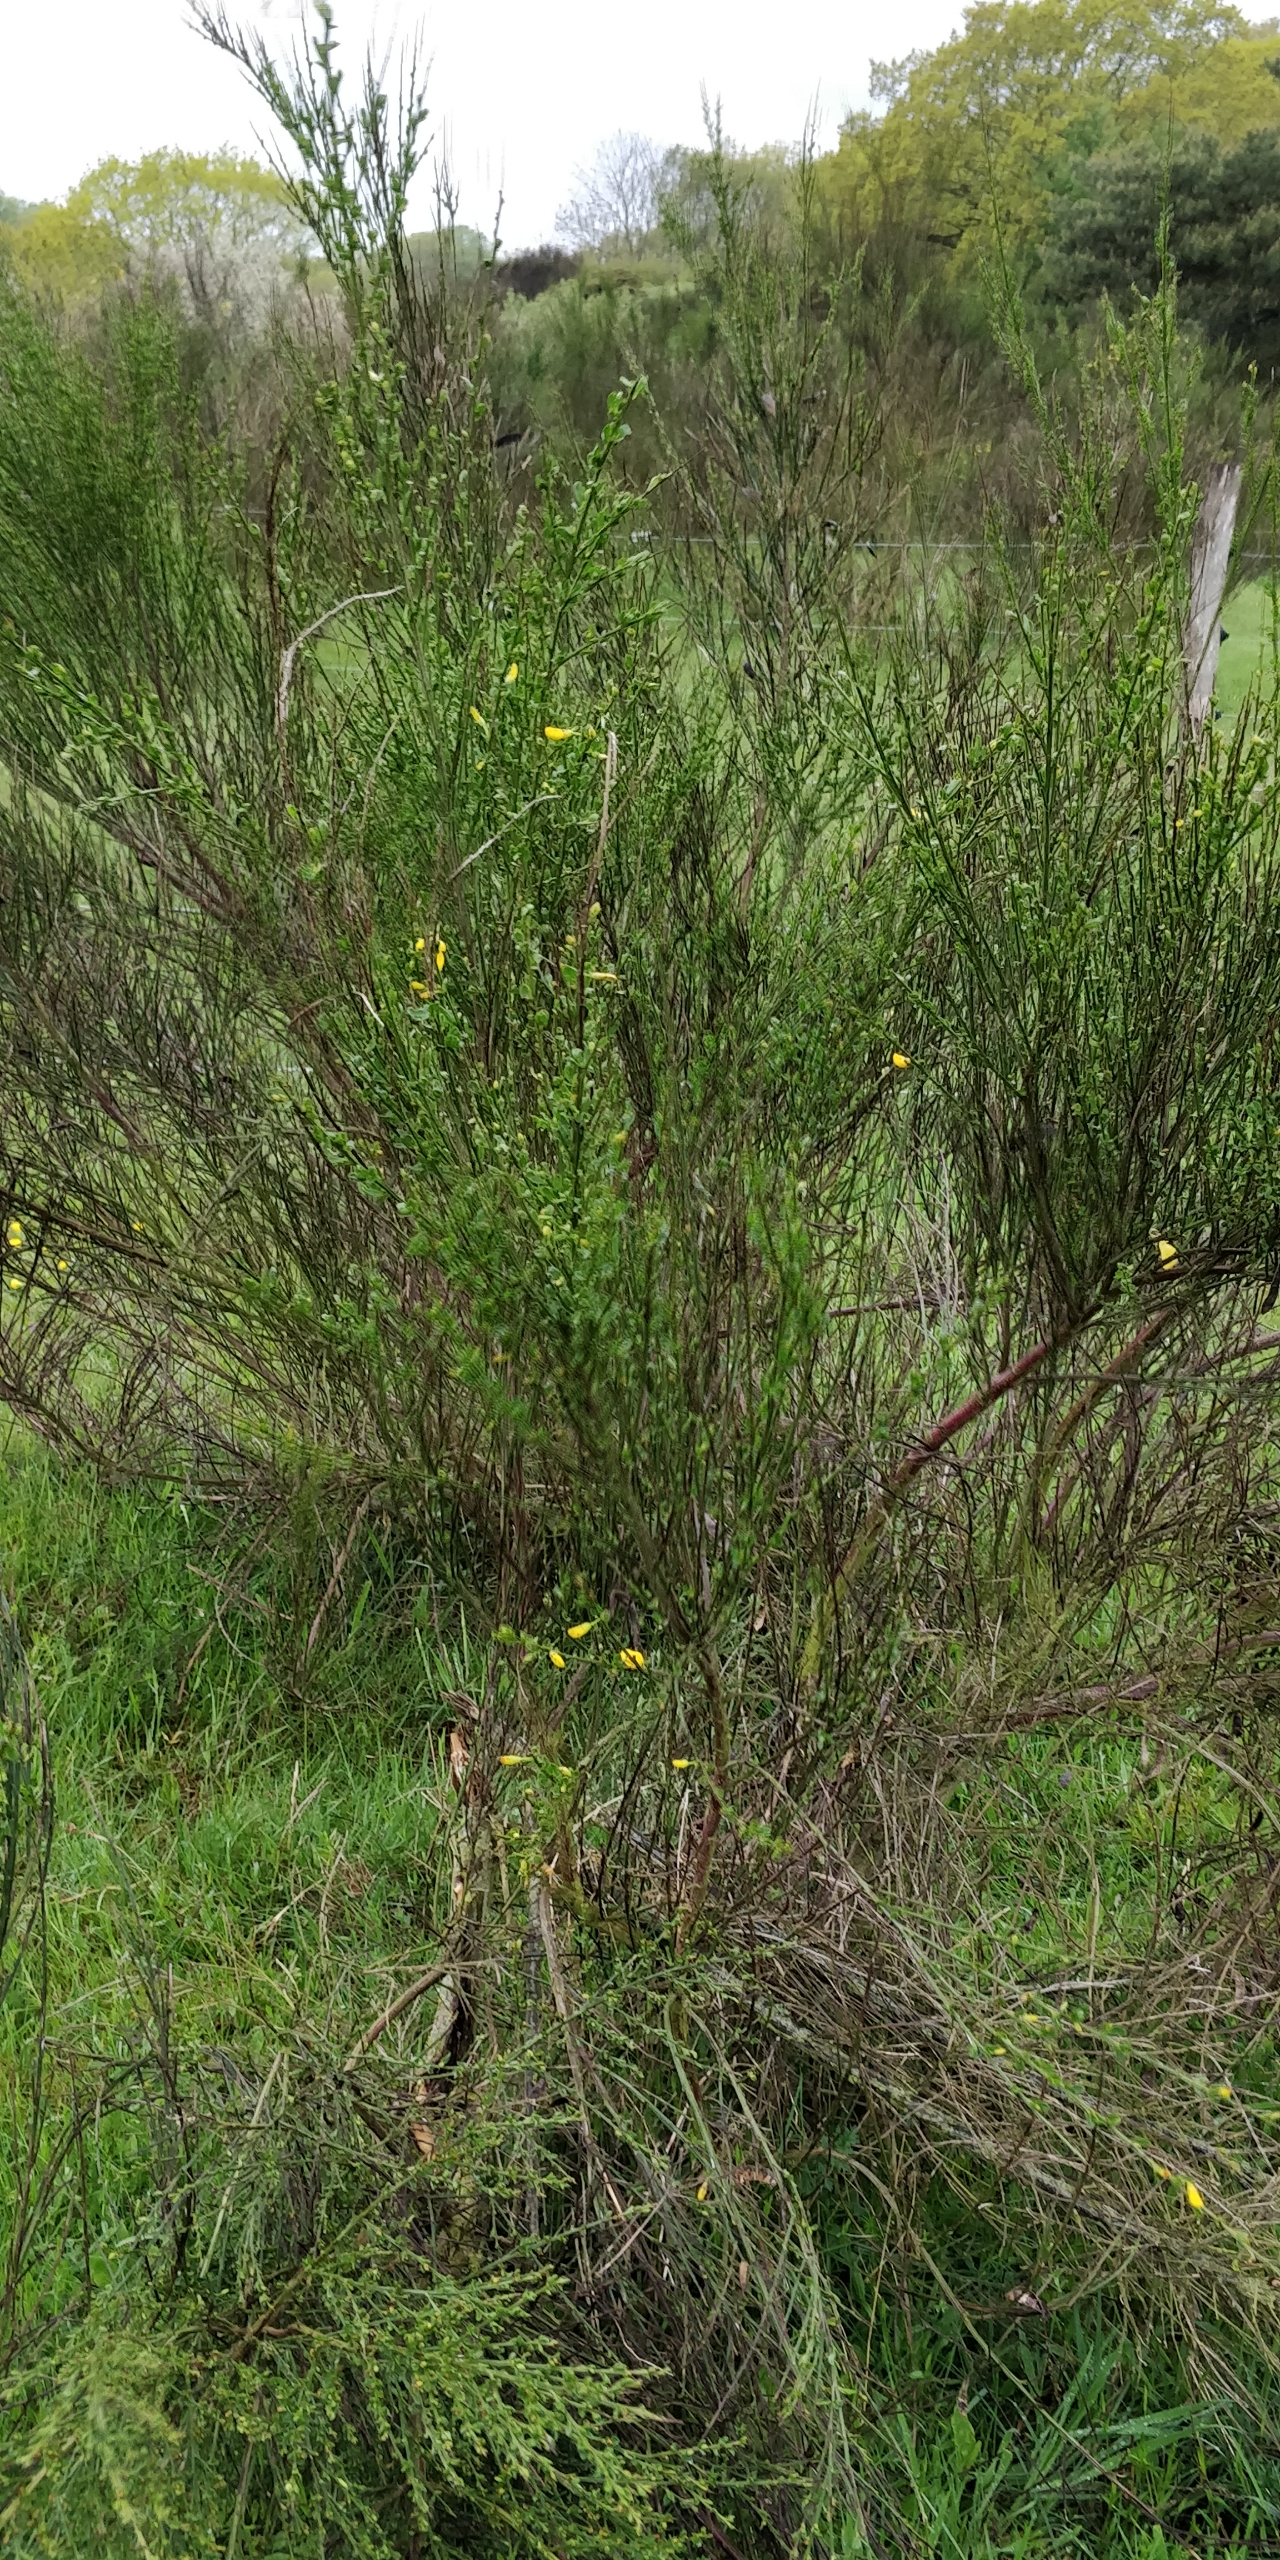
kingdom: Plantae
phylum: Tracheophyta
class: Magnoliopsida
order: Fabales
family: Fabaceae
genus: Cytisus
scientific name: Cytisus scoparius
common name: Almindelig gyvel
